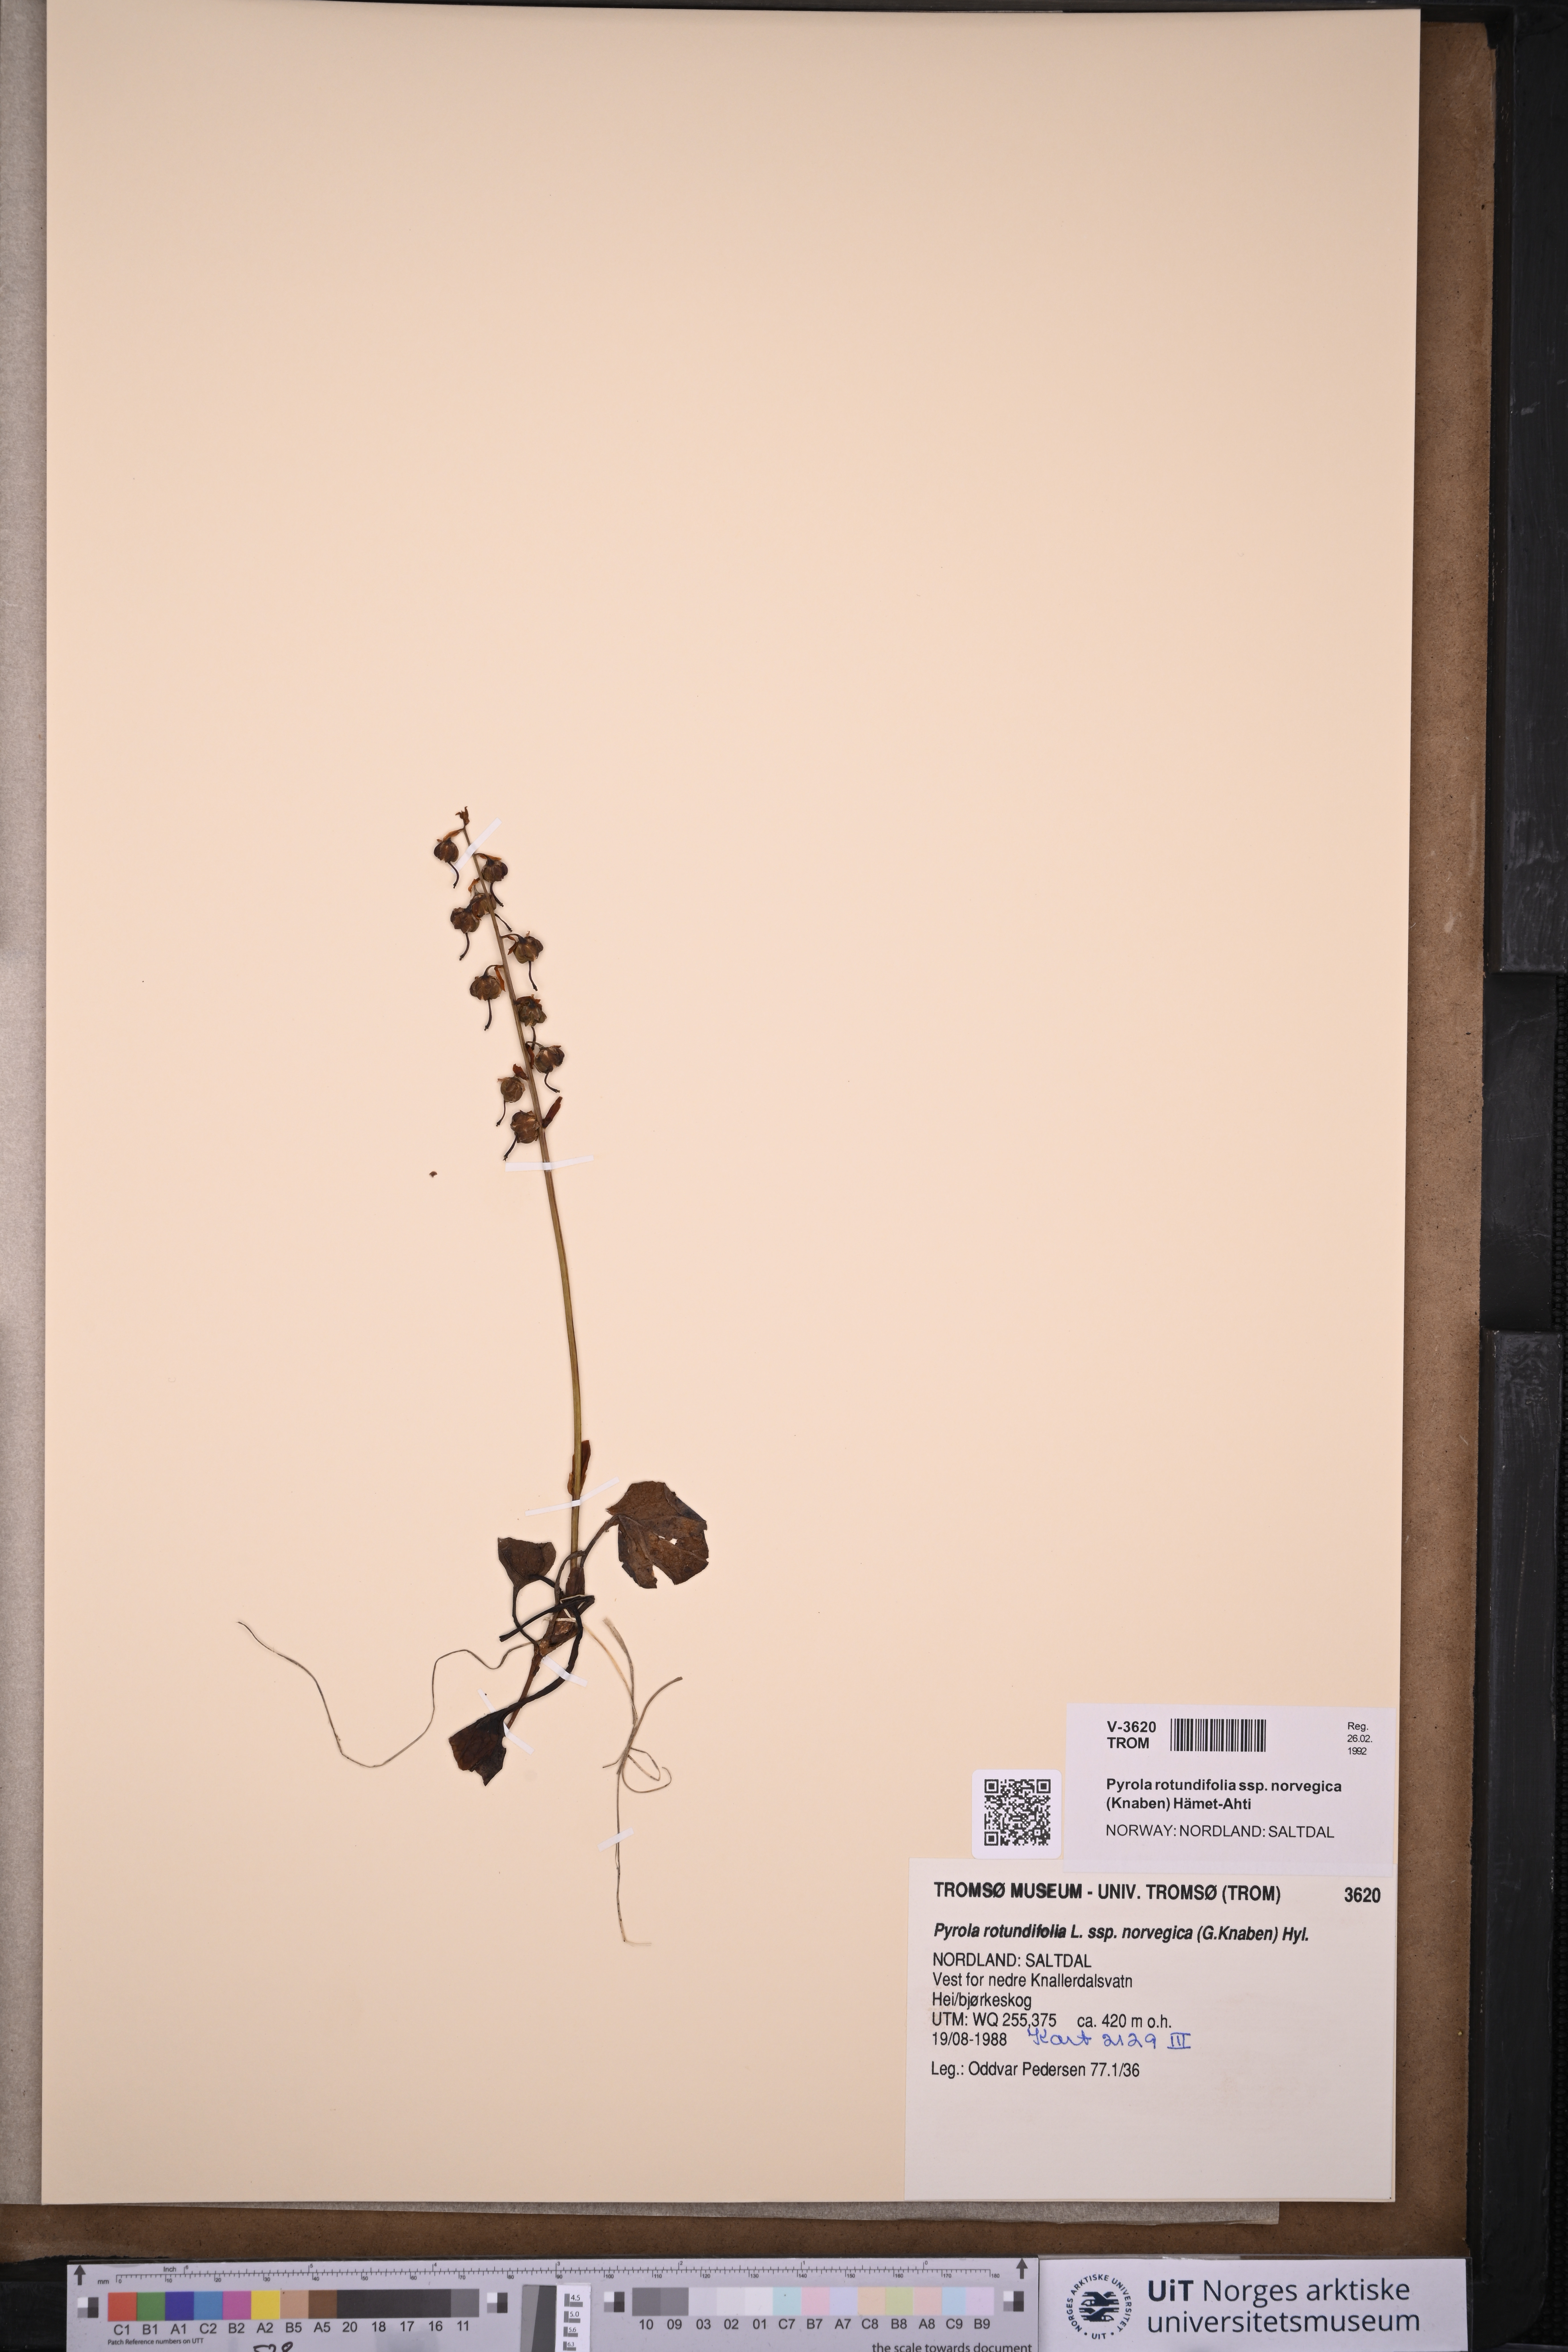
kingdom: Plantae
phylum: Tracheophyta
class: Magnoliopsida
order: Ericales
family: Ericaceae
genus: Pyrola
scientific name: Pyrola rotundifolia
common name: Round-leaved wintergreen
